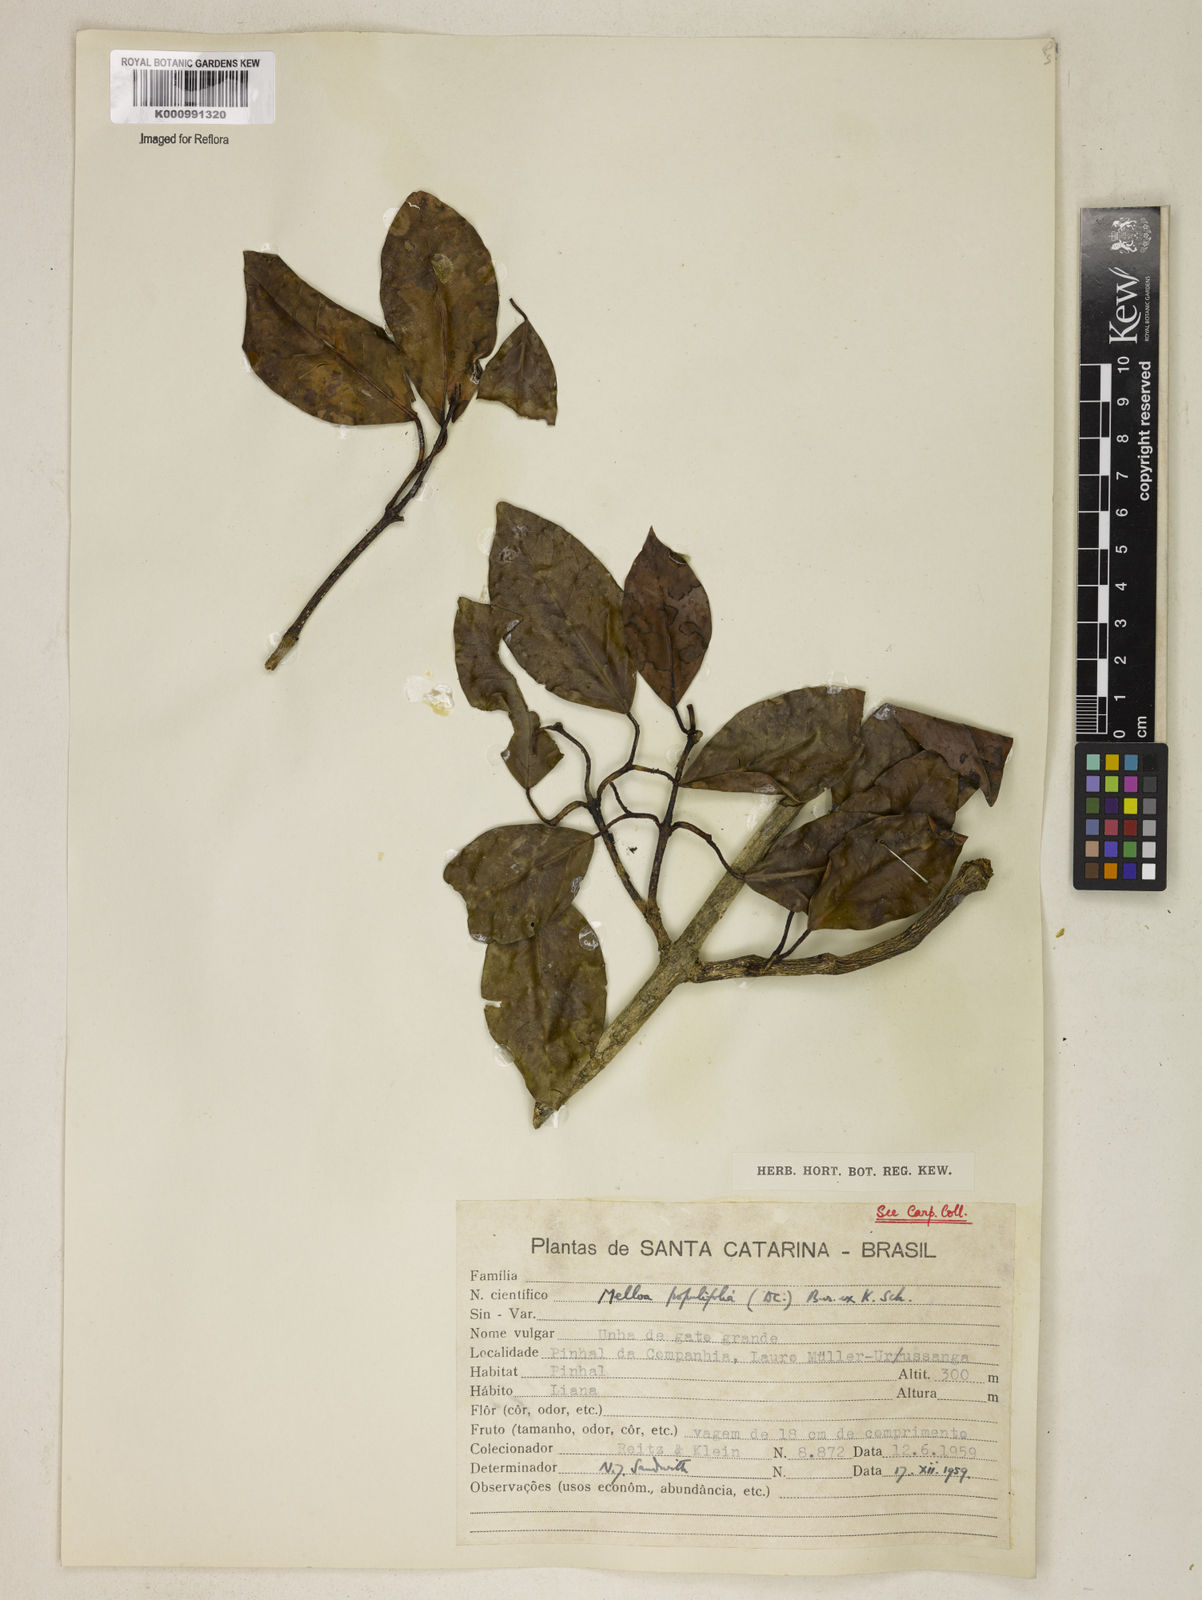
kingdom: Plantae
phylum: Tracheophyta
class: Magnoliopsida
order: Lamiales
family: Bignoniaceae
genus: Dolichandra
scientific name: Dolichandra quadrivalvis
